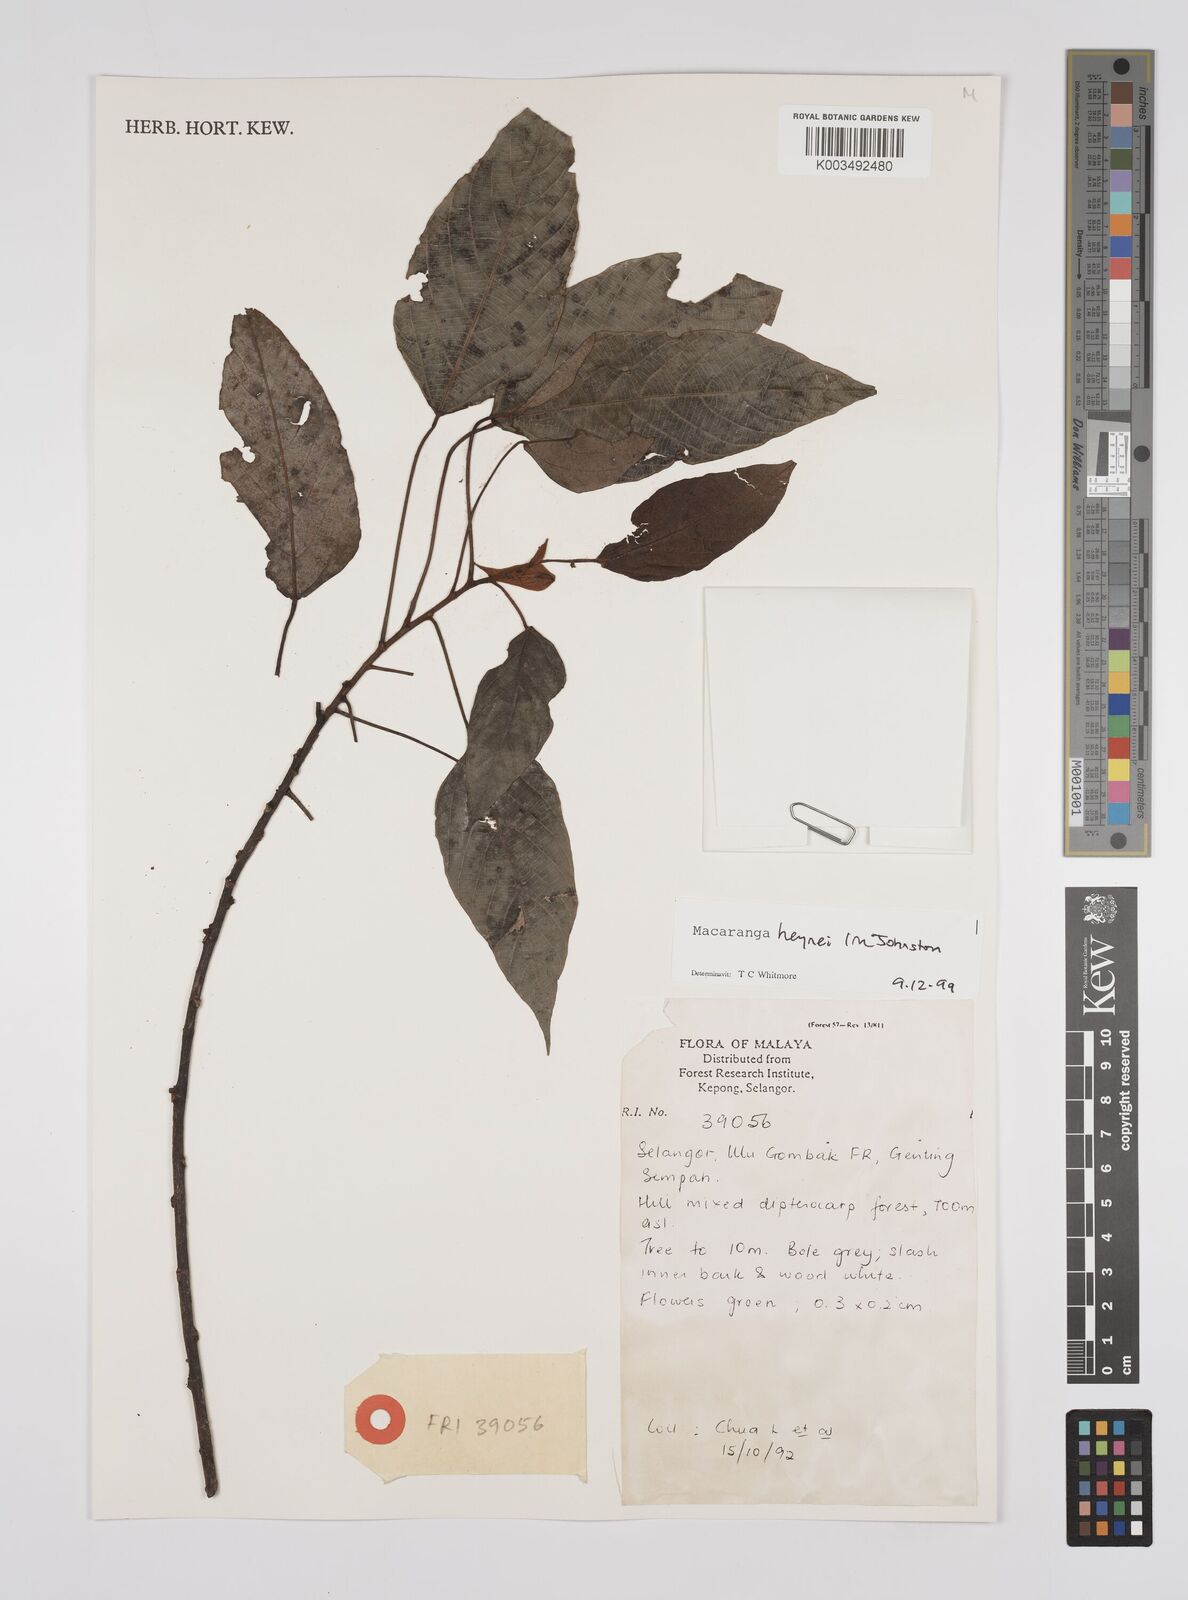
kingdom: Plantae
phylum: Tracheophyta
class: Magnoliopsida
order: Malpighiales
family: Euphorbiaceae
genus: Macaranga
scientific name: Macaranga heynei
